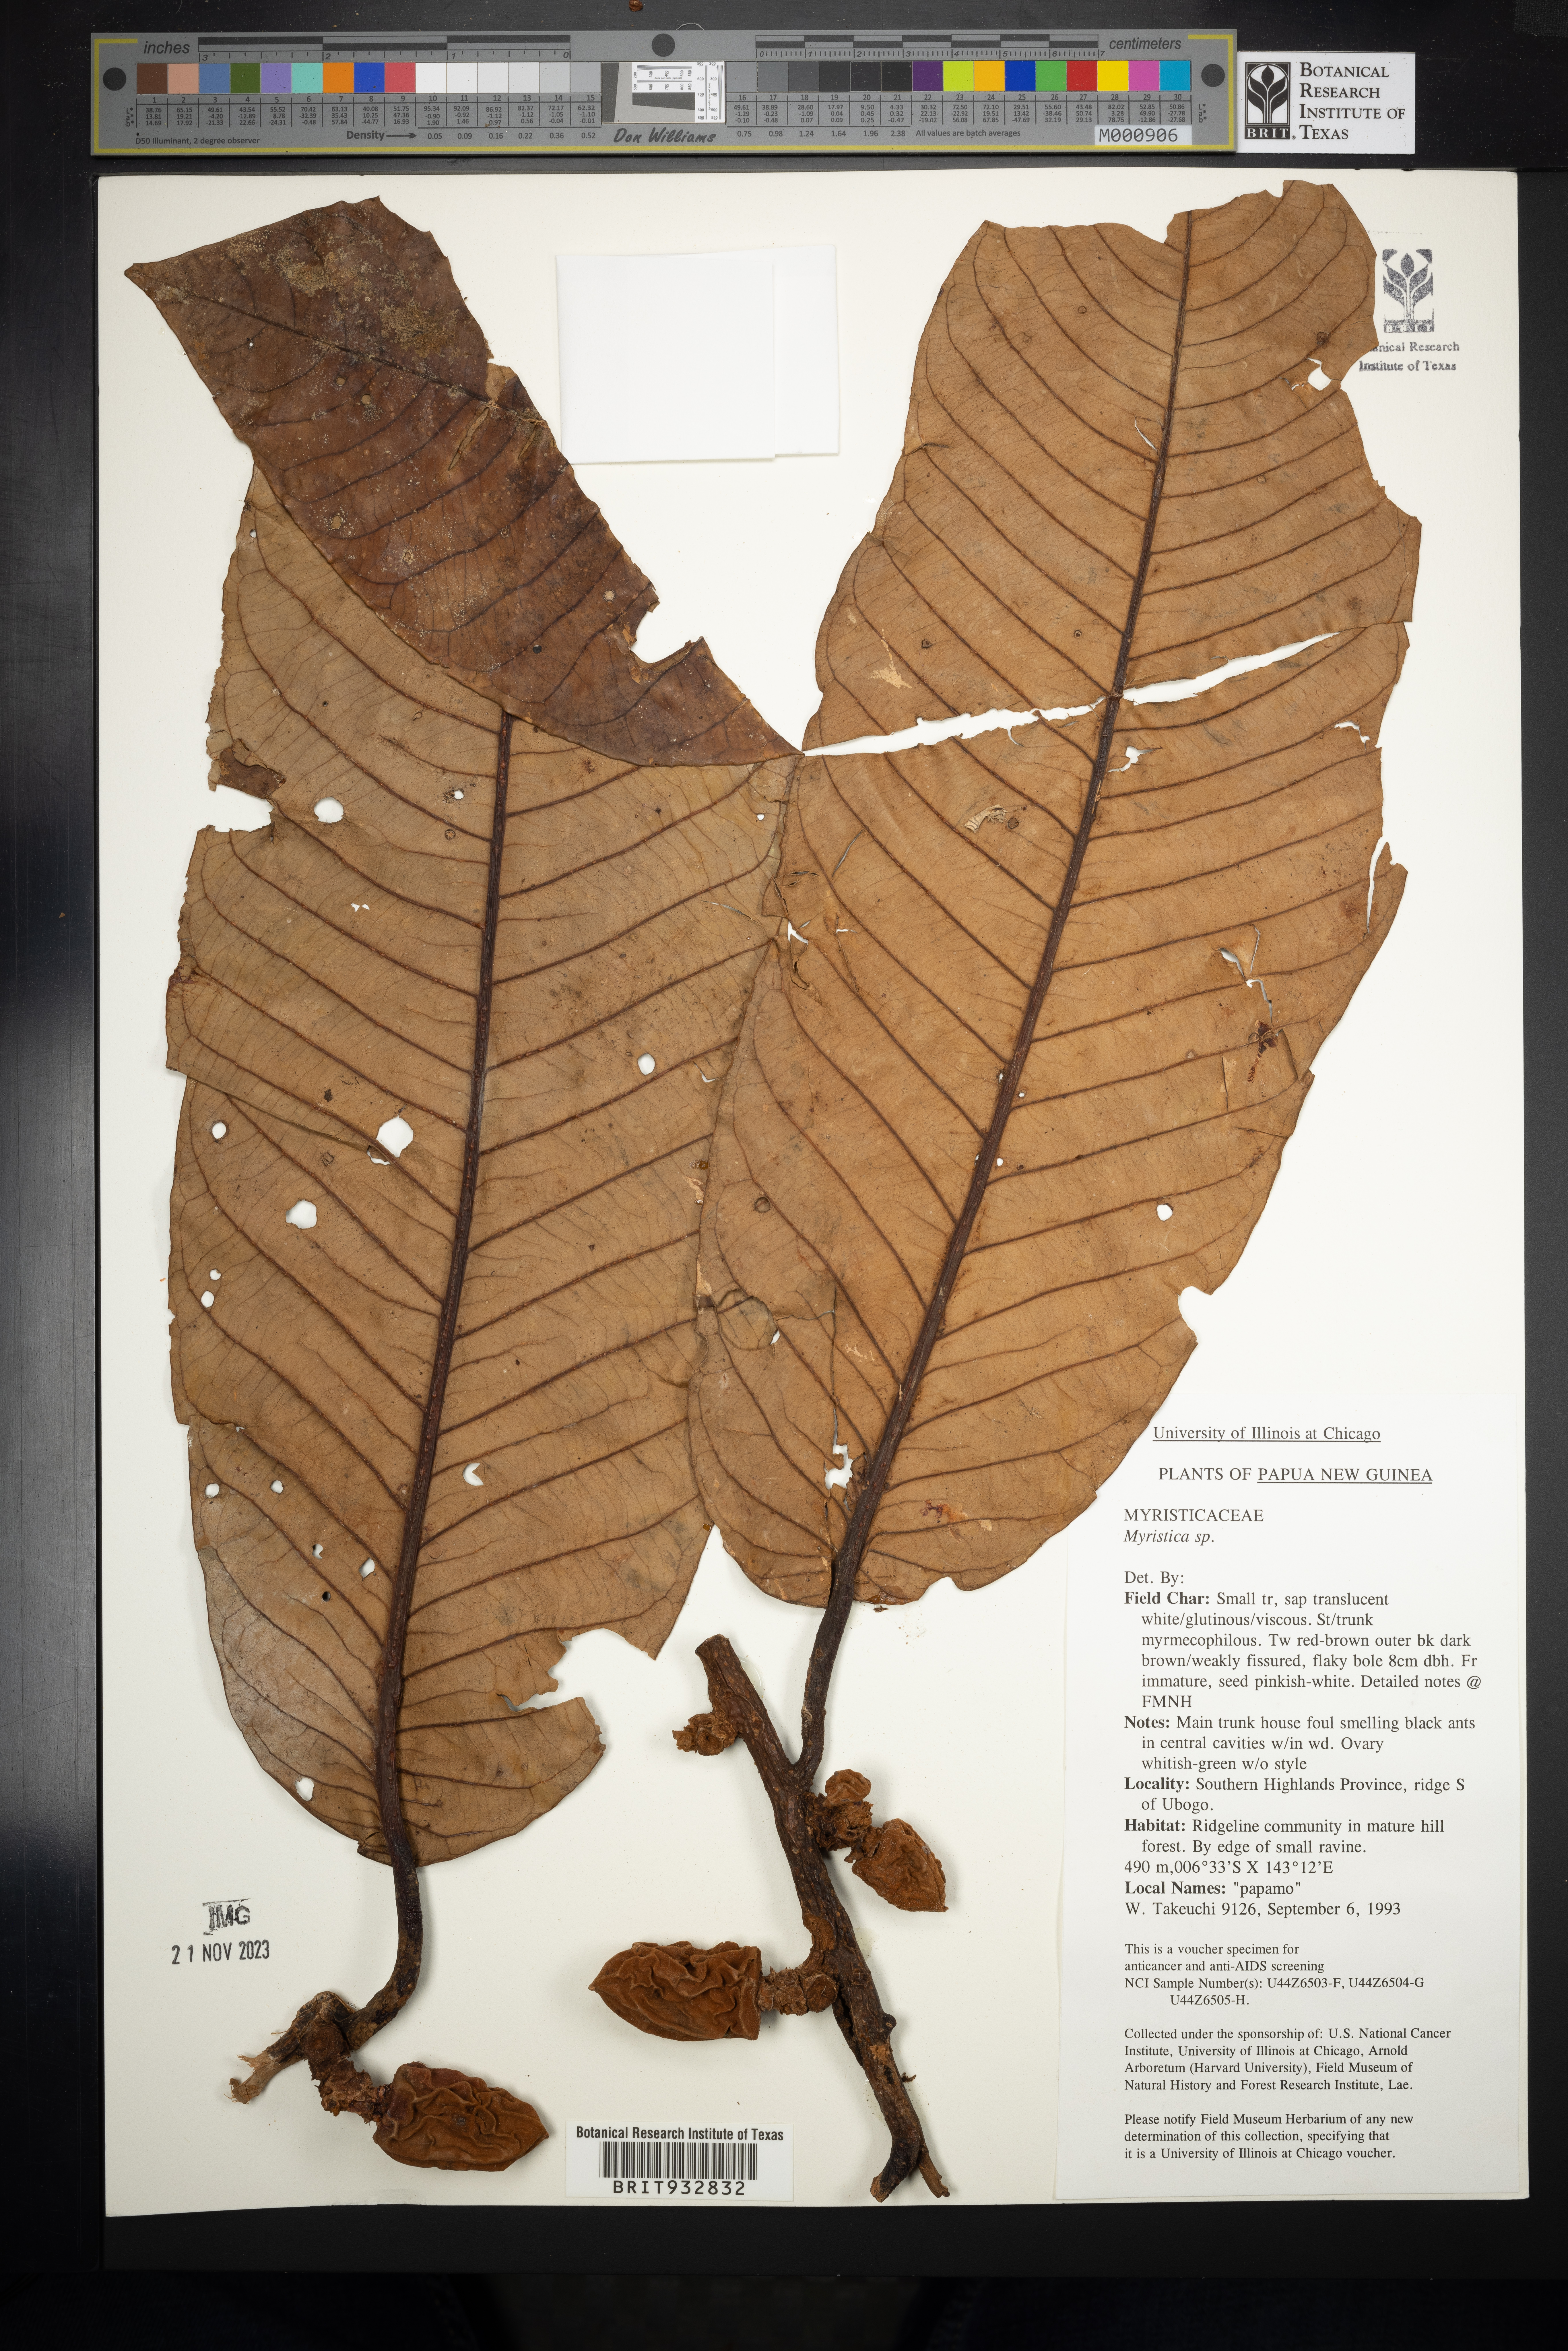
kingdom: Plantae
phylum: Tracheophyta
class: Magnoliopsida
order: Magnoliales
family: Myristicaceae
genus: Myristica
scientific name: Myristica
